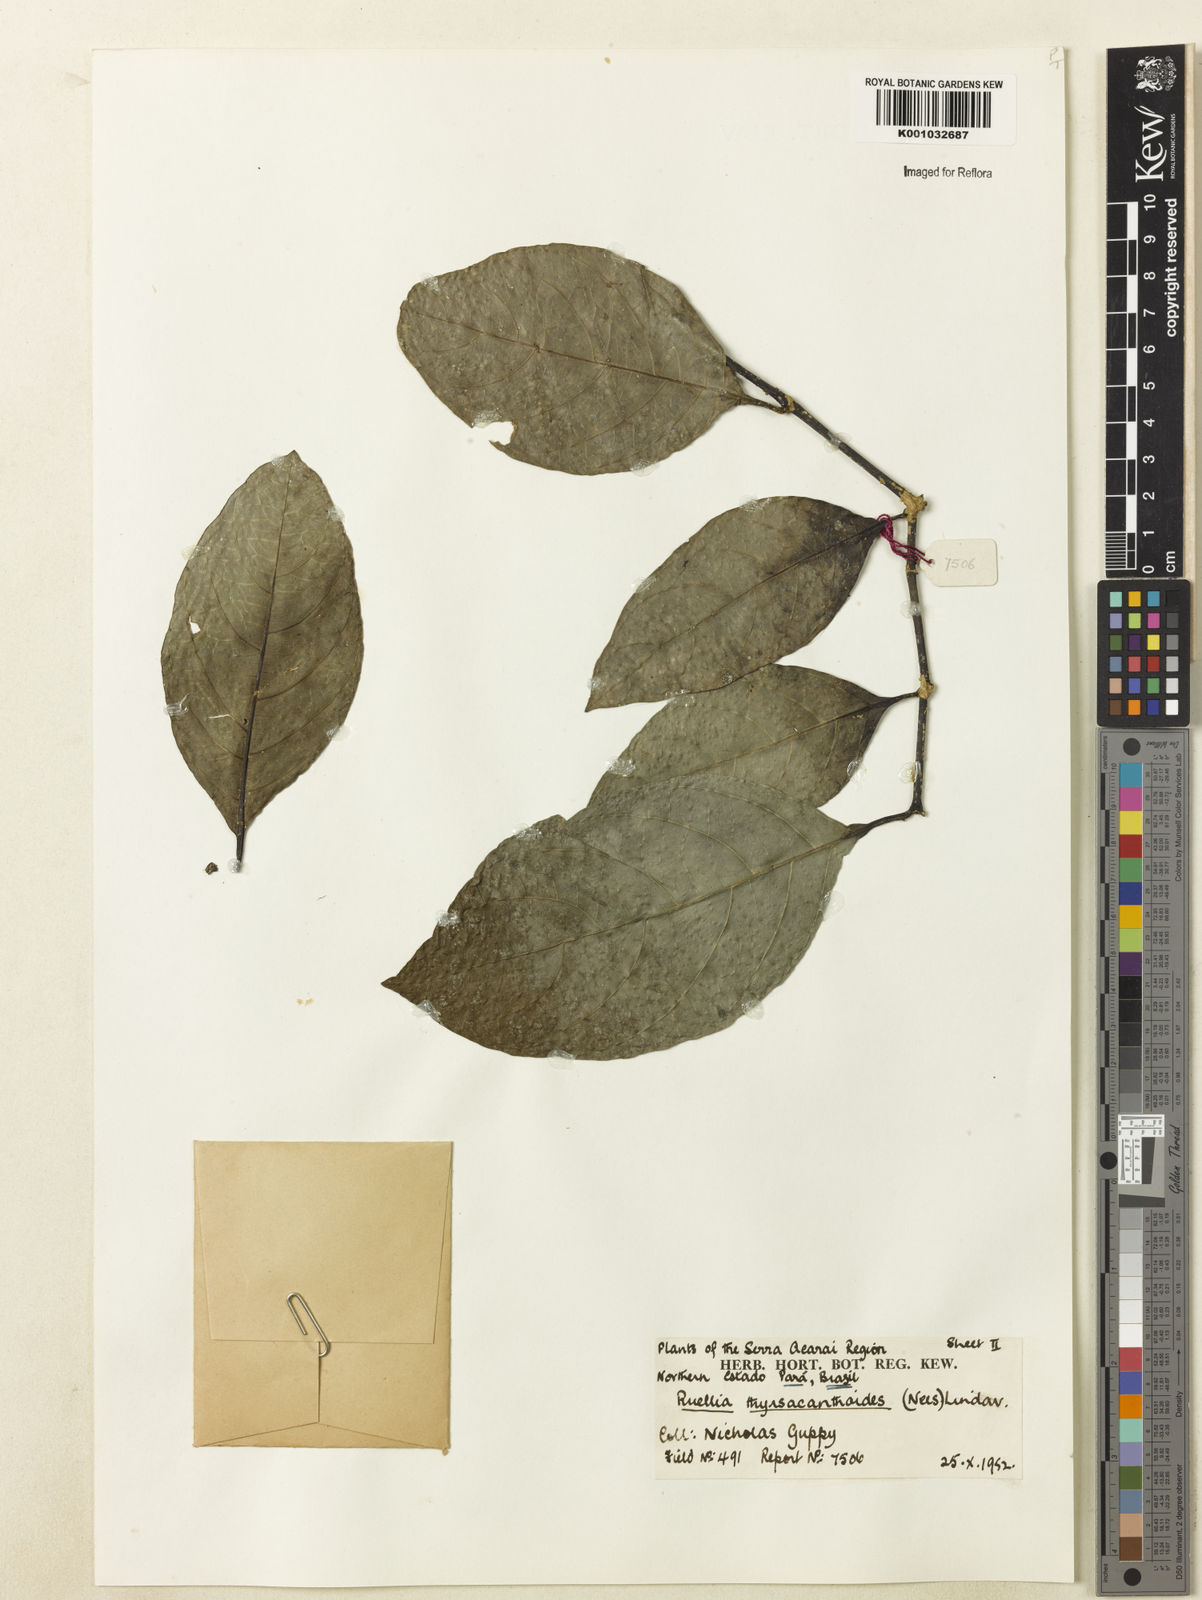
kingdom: Plantae
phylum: Tracheophyta
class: Magnoliopsida
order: Lamiales
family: Acanthaceae
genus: Ruellia
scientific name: Ruellia humboldtiana
